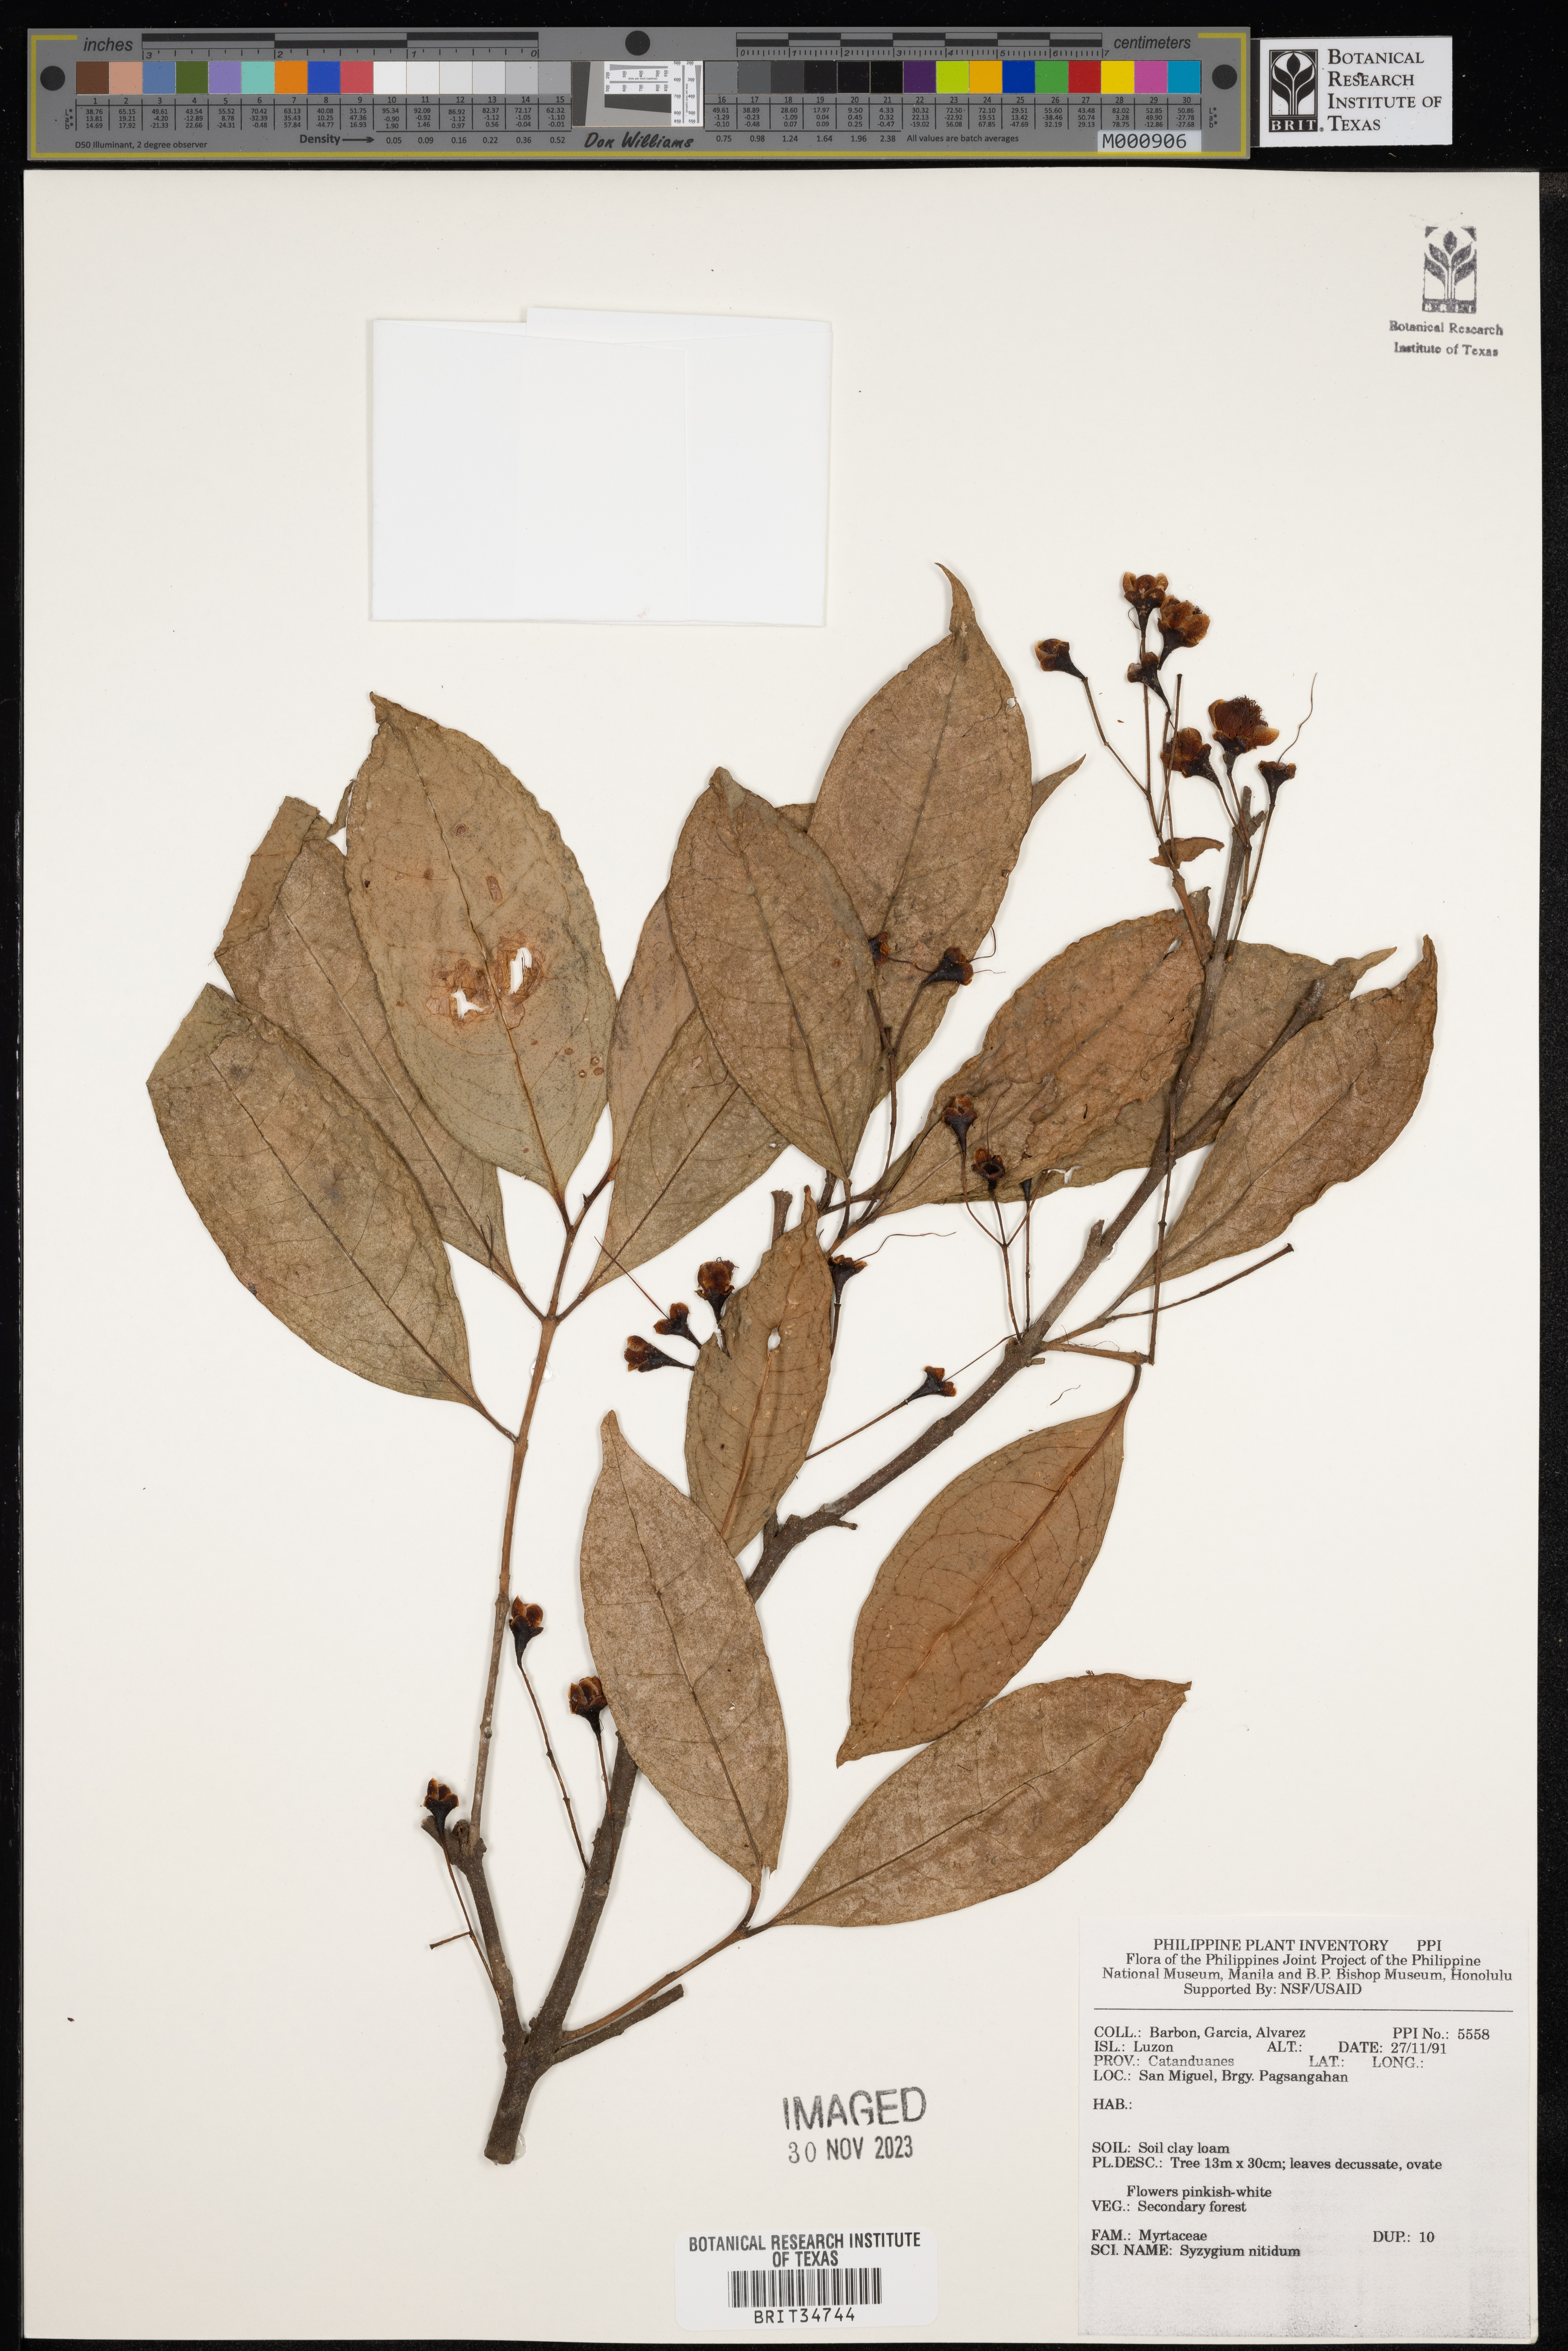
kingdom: Plantae
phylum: Tracheophyta
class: Magnoliopsida
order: Myrtales
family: Myrtaceae
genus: Syzygium
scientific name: Syzygium nitidum
